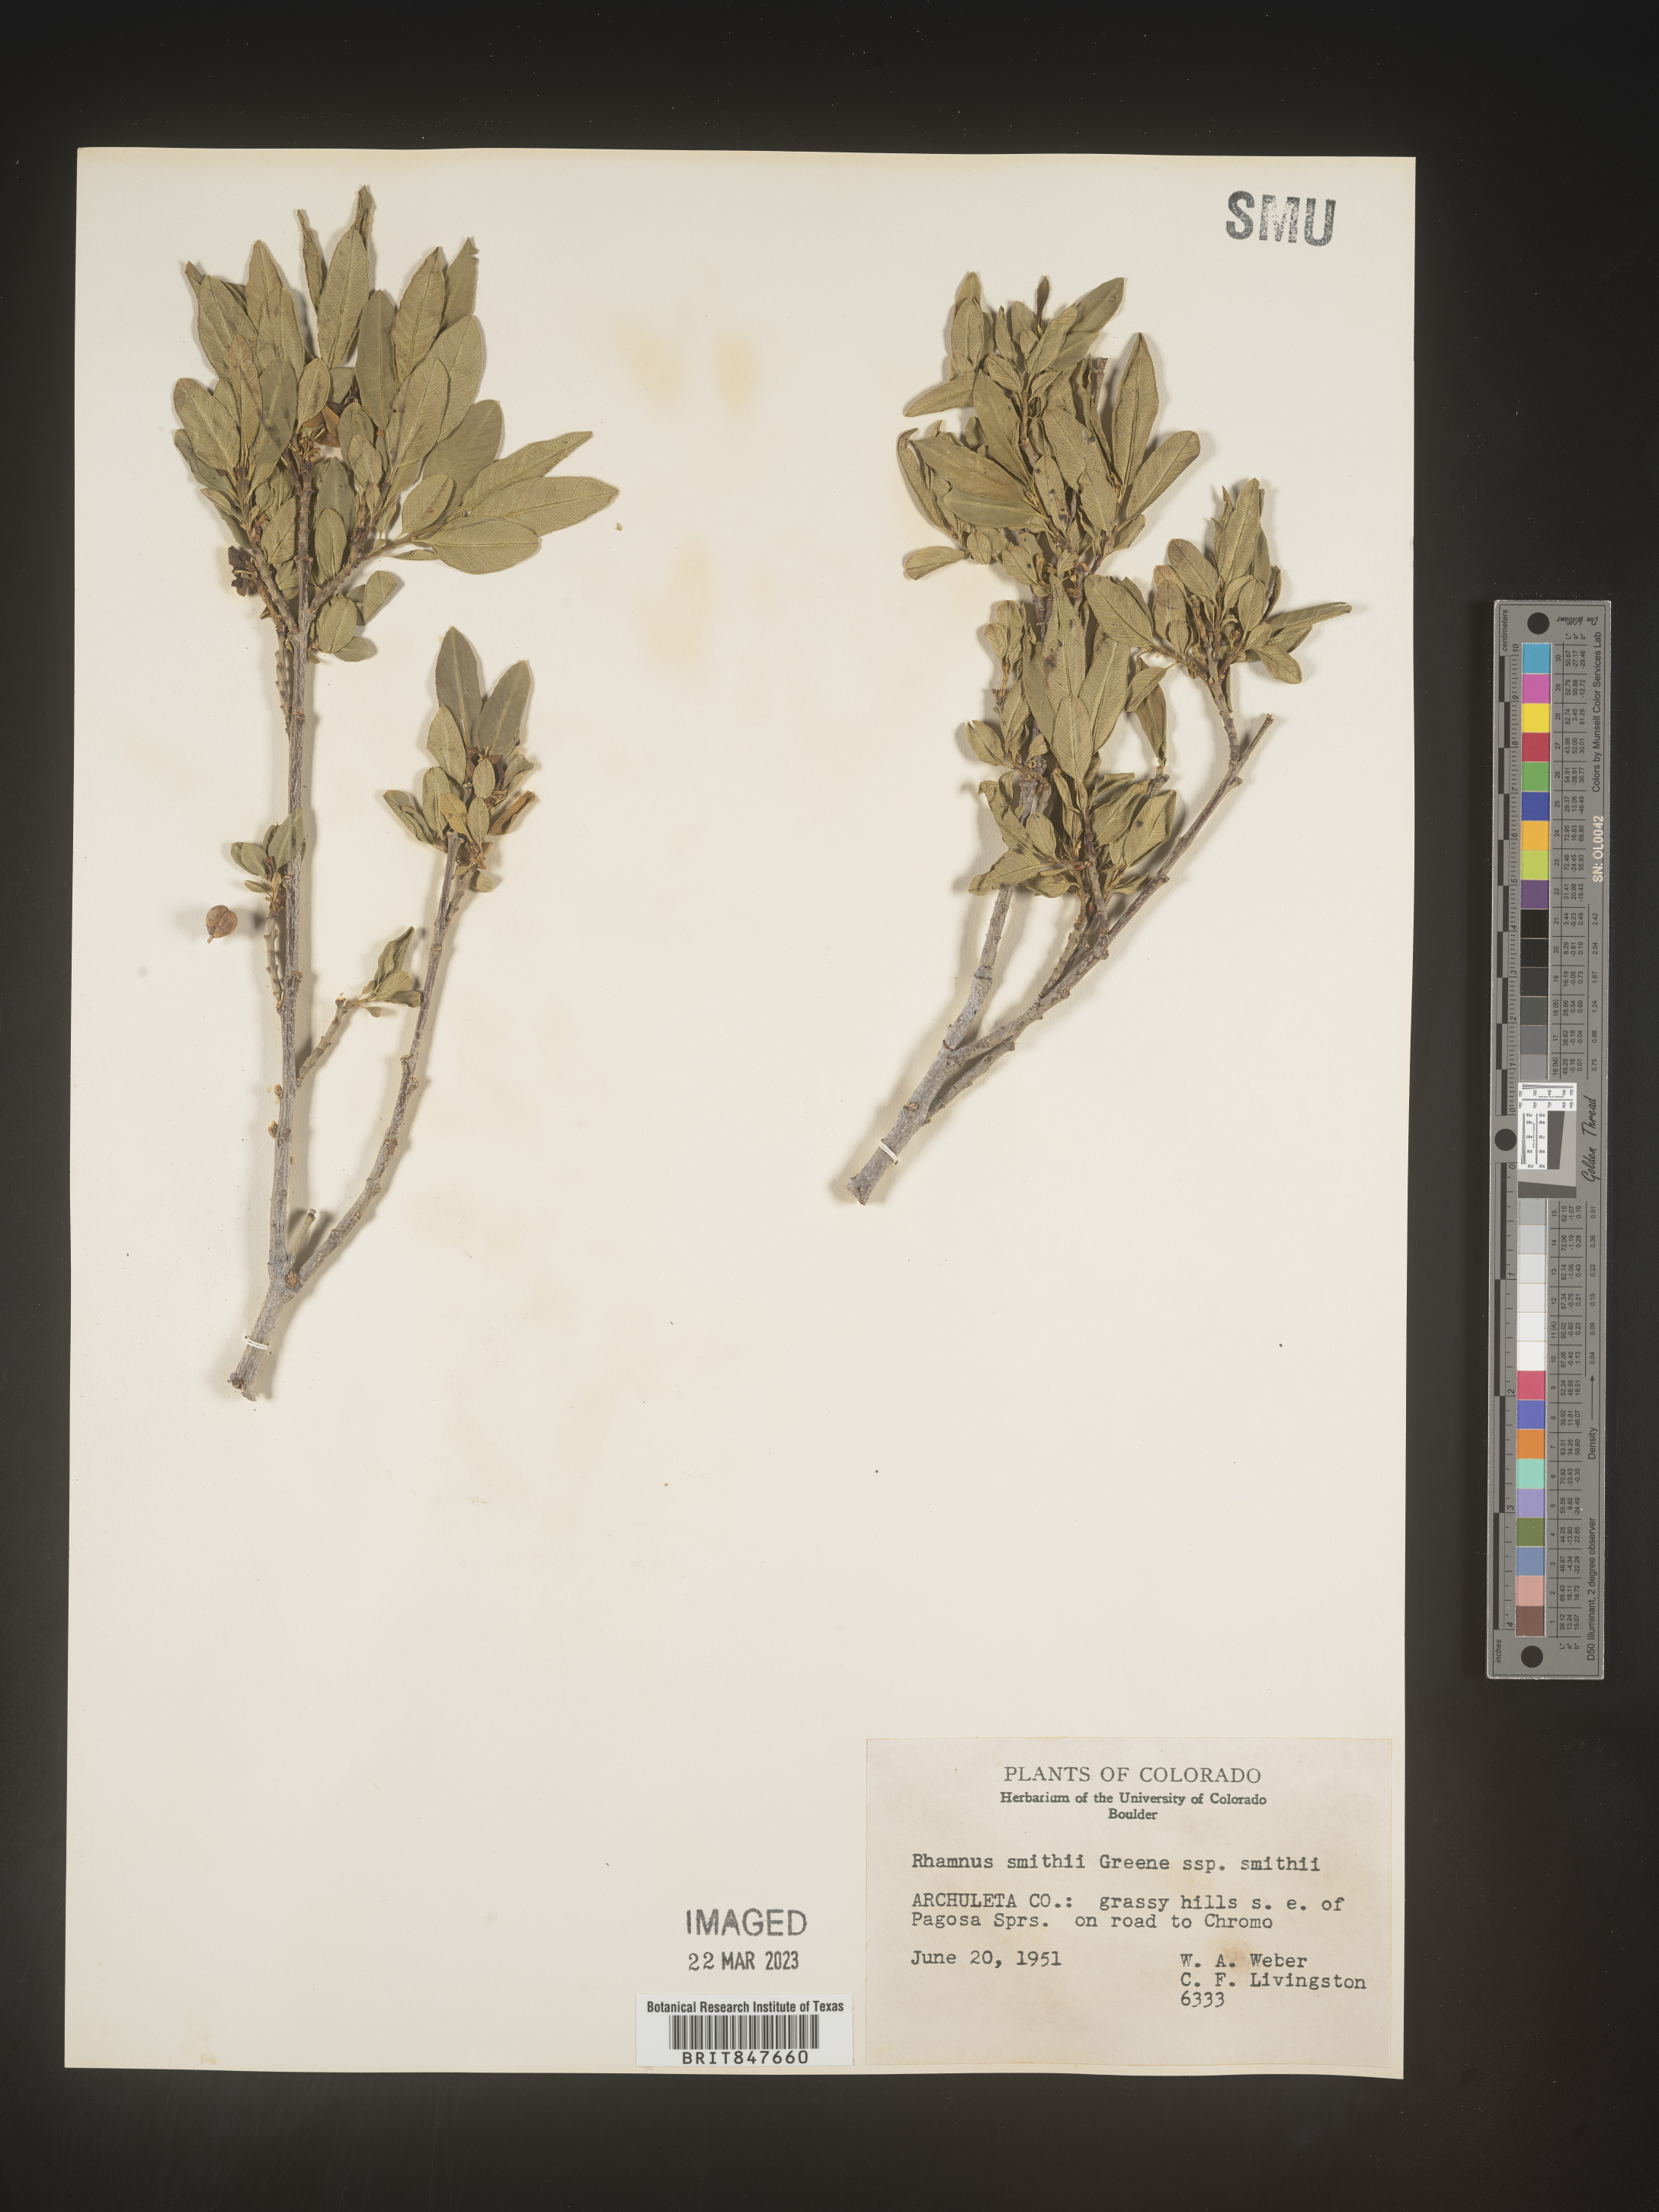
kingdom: Plantae
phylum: Tracheophyta
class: Magnoliopsida
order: Rosales
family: Rhamnaceae
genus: Rhamnus
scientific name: Rhamnus
